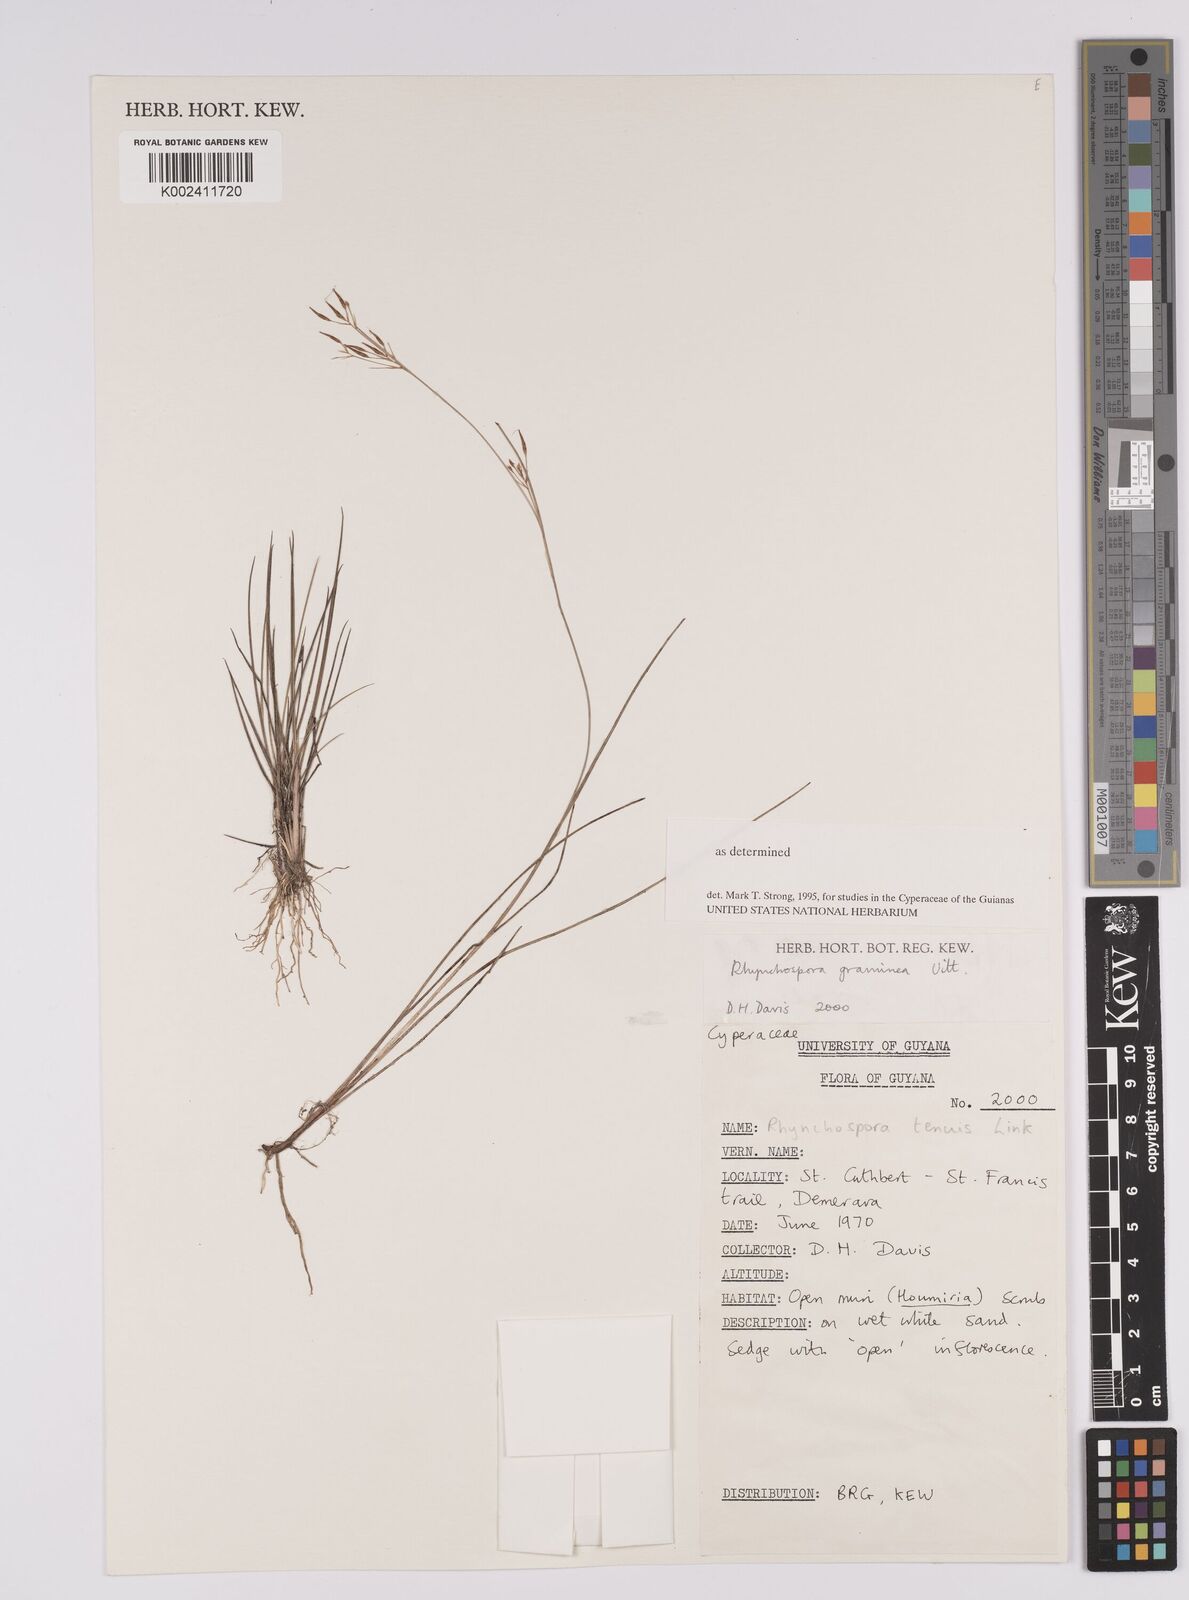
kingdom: Plantae
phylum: Tracheophyta
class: Liliopsida
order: Poales
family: Cyperaceae
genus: Rhynchospora
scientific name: Rhynchospora spruceana
